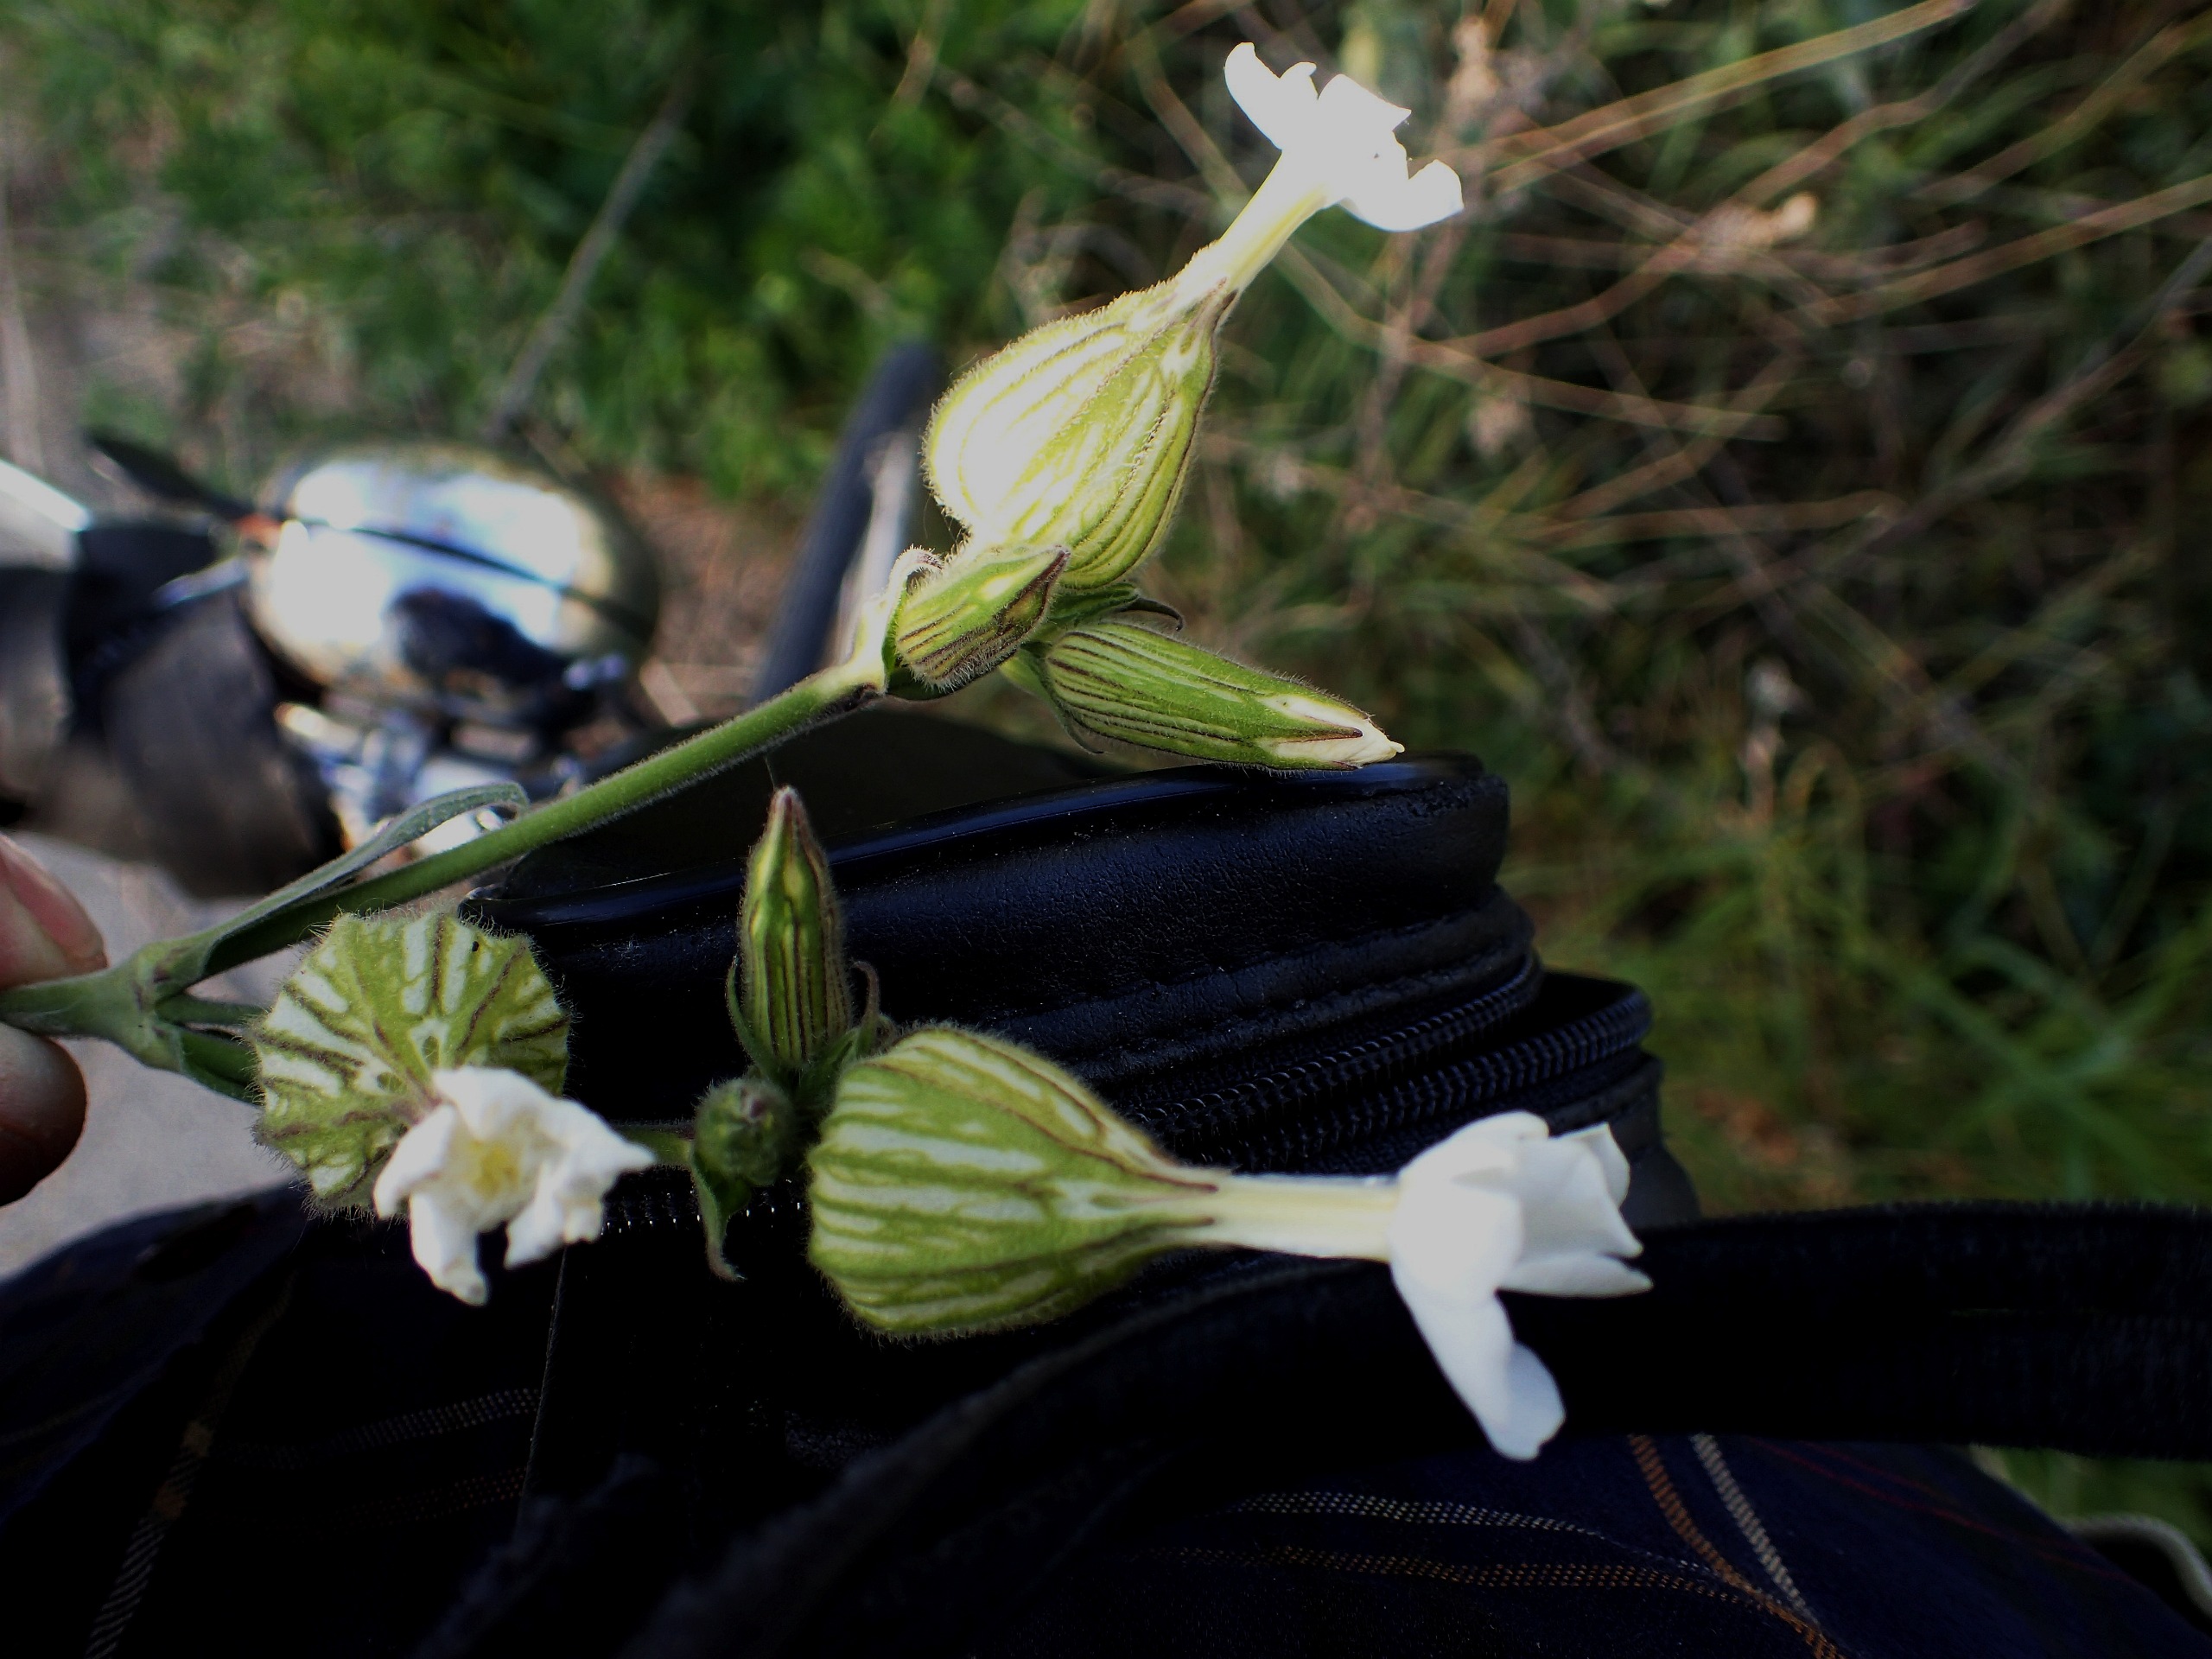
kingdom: Plantae
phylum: Tracheophyta
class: Magnoliopsida
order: Caryophyllales
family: Caryophyllaceae
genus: Silene
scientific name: Silene latifolia
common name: Aftenpragtstjerne
